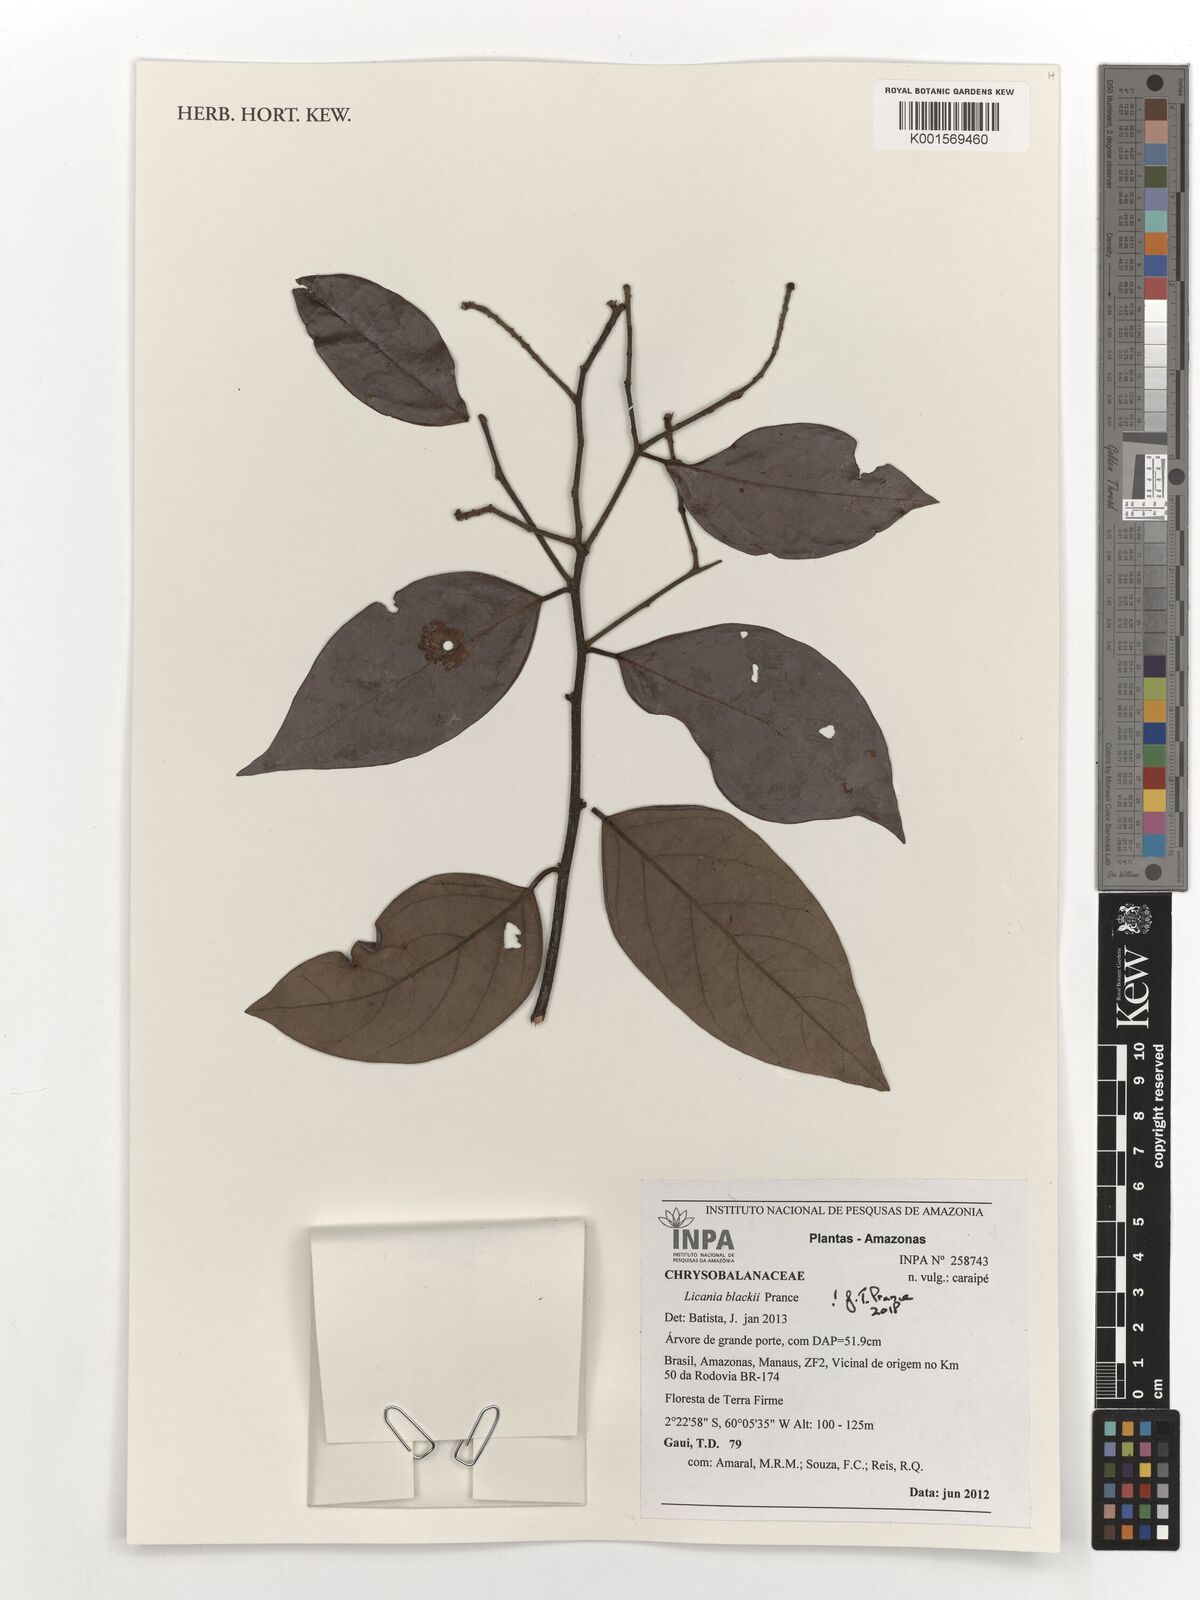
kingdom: Plantae
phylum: Tracheophyta
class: Magnoliopsida
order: Malpighiales
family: Chrysobalanaceae
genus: Licania
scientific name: Licania blackii
